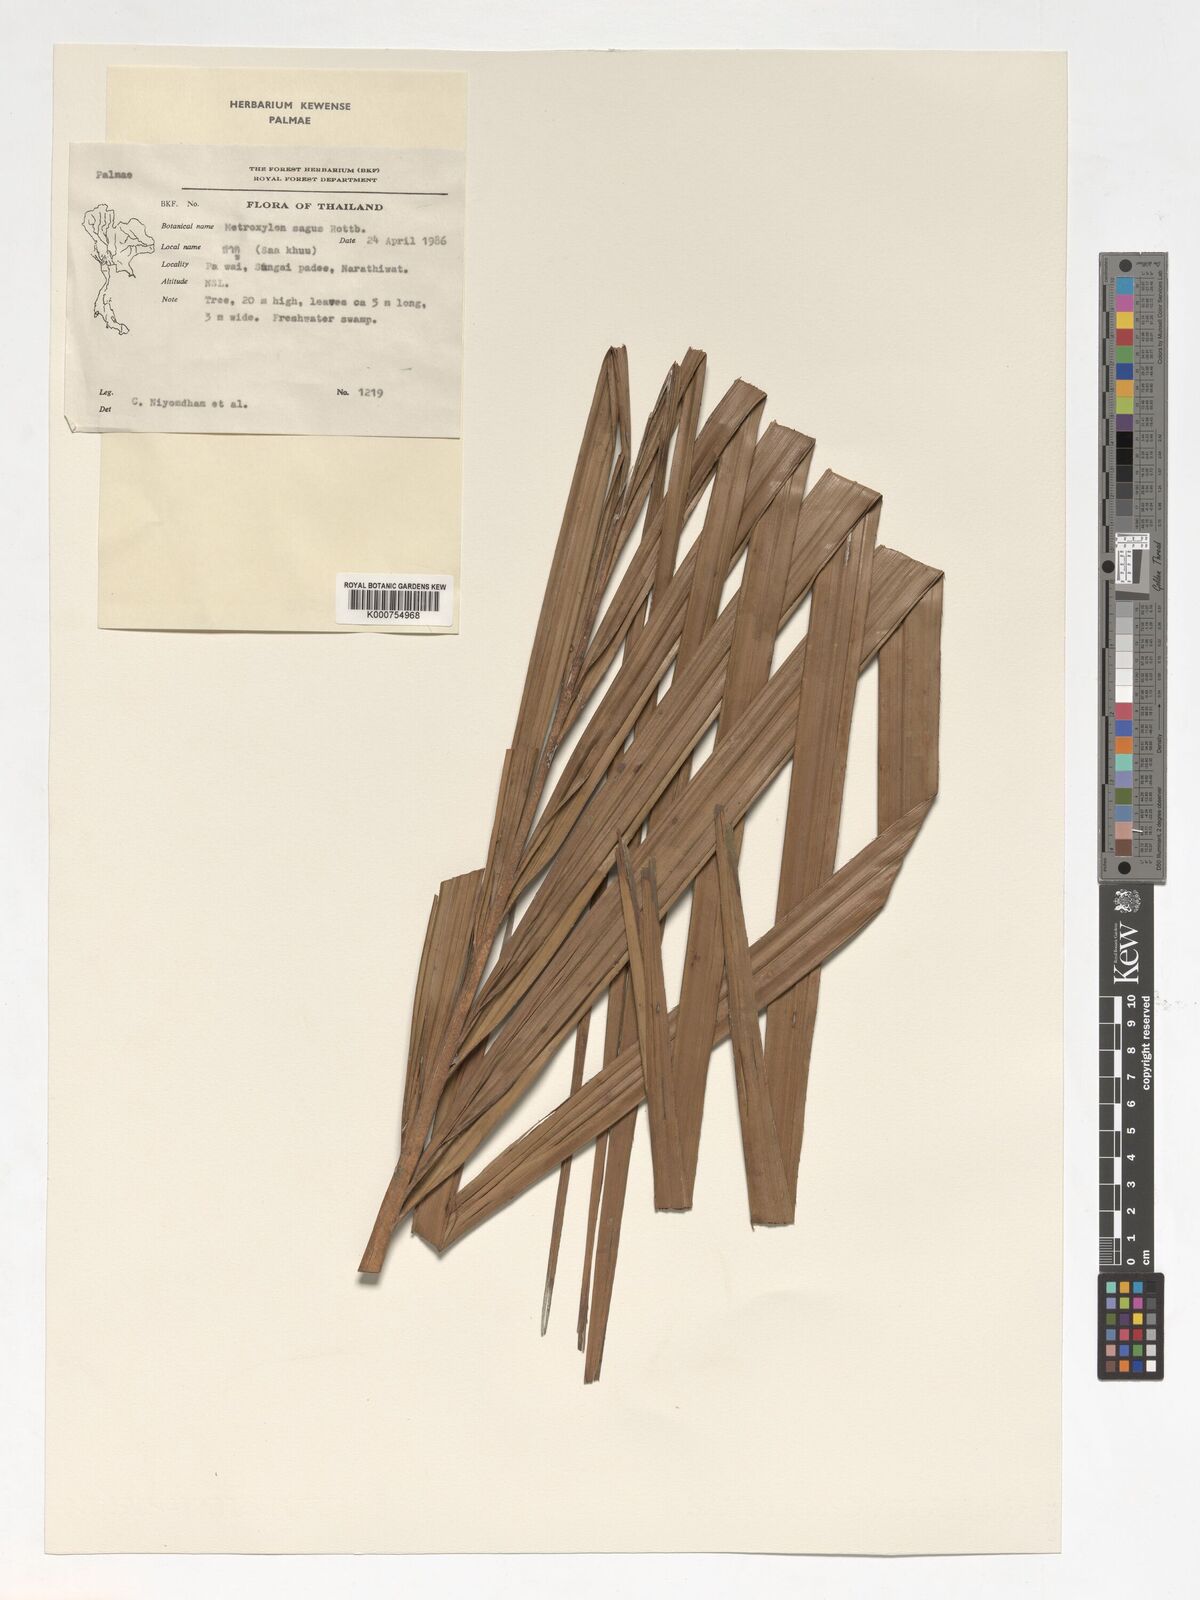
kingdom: Plantae
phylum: Tracheophyta
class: Liliopsida
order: Arecales
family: Arecaceae
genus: Metroxylon
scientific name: Metroxylon sagu
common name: Sago palm
